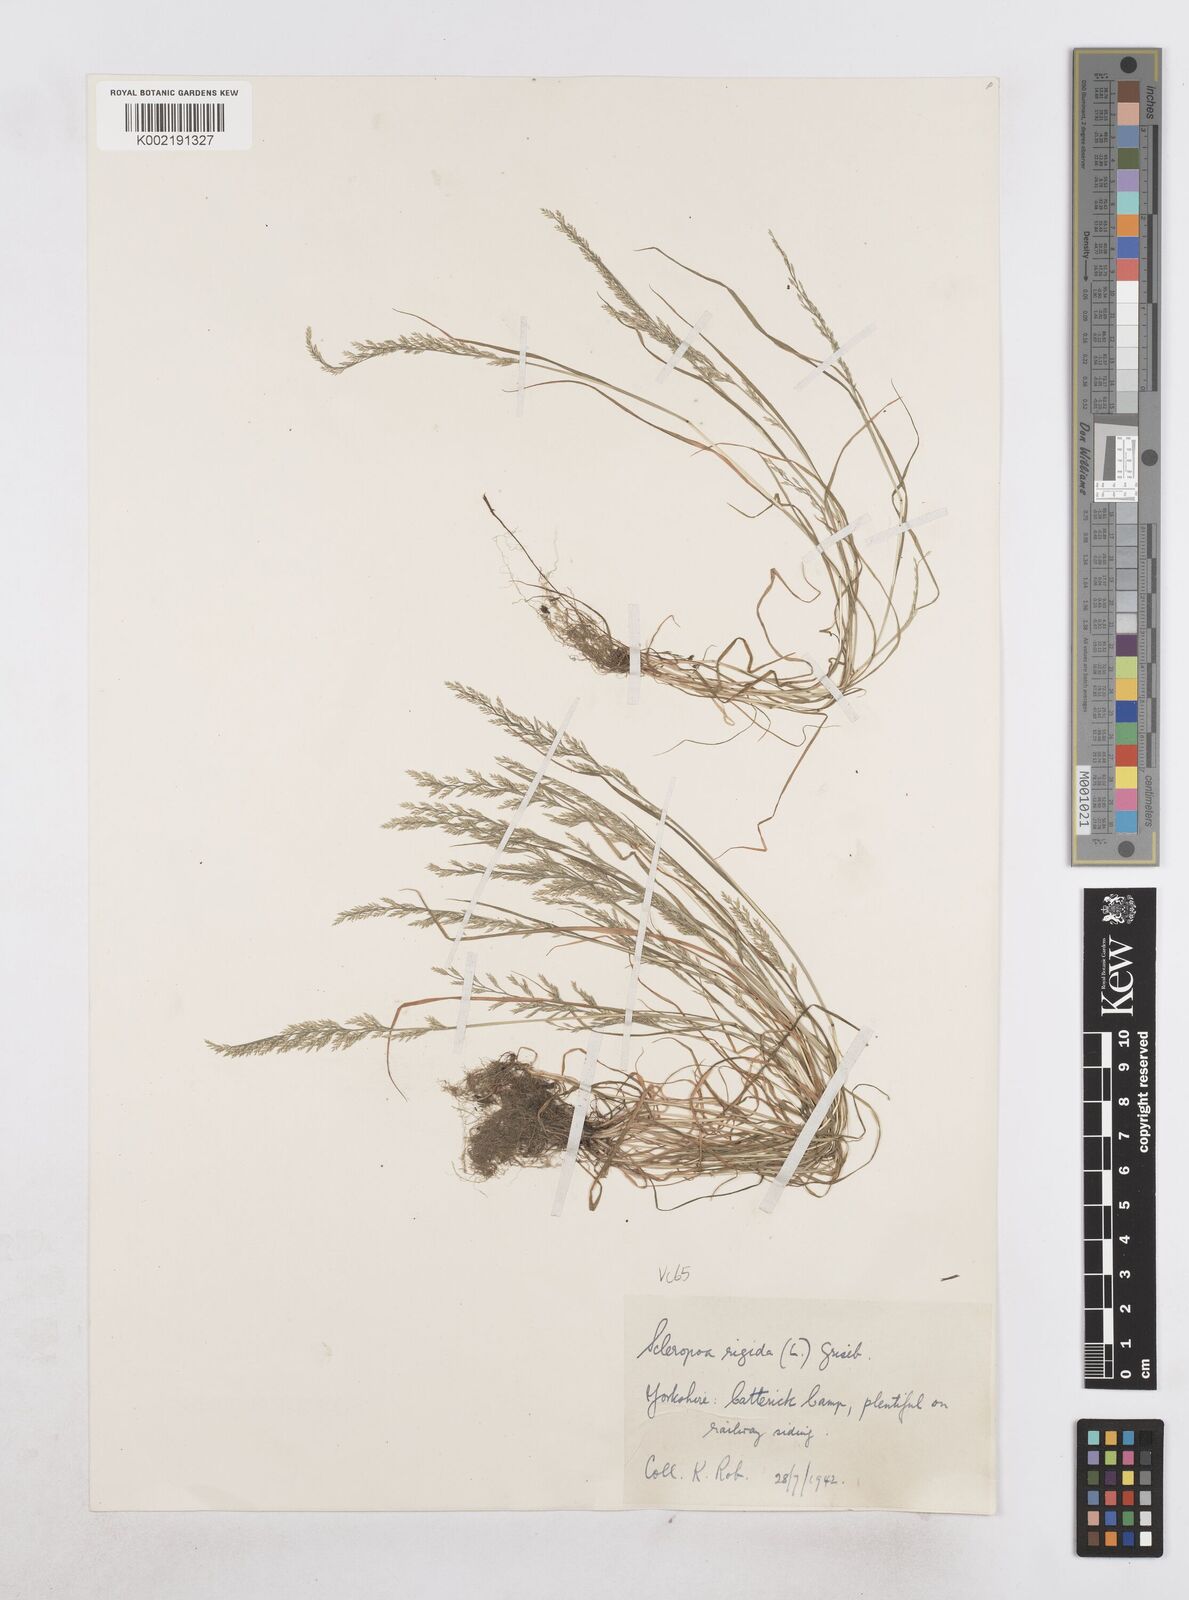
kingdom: Plantae
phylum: Tracheophyta
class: Liliopsida
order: Poales
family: Poaceae
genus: Catapodium
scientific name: Catapodium rigidum
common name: Fern-grass
